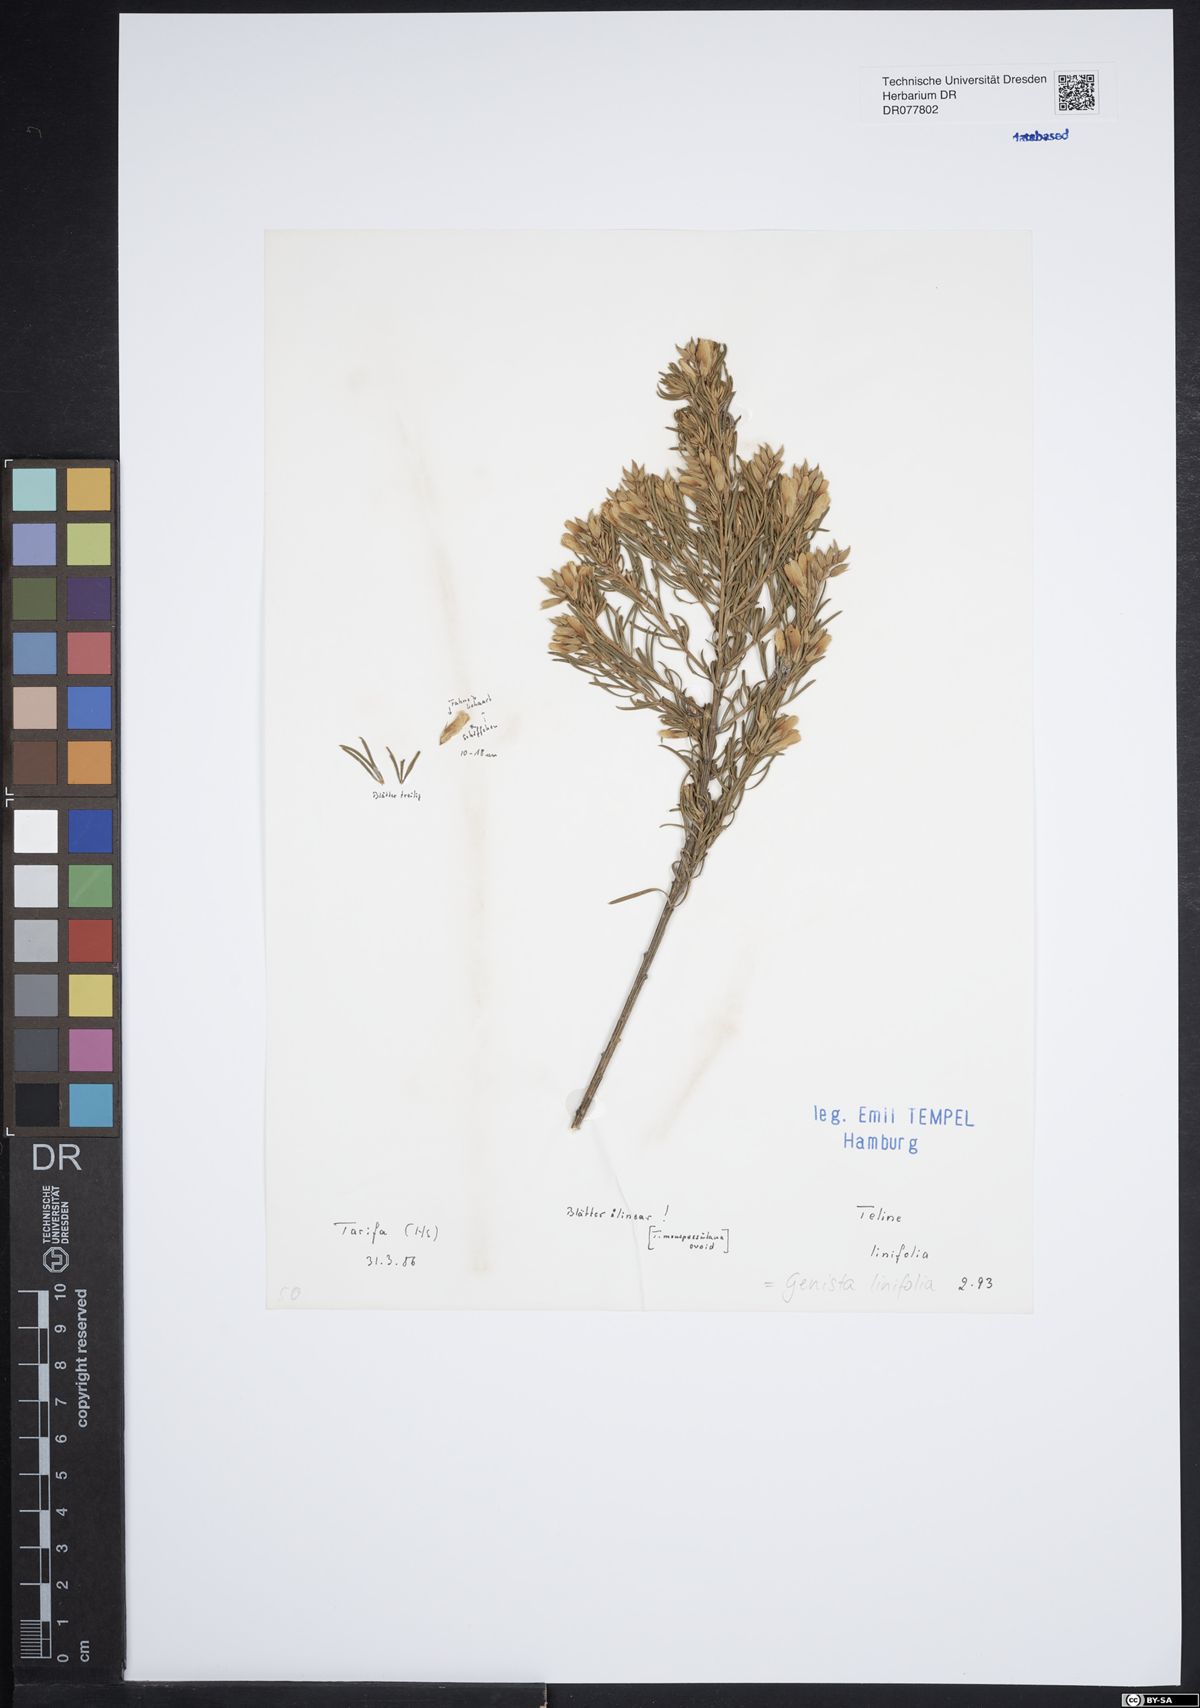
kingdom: Plantae
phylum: Tracheophyta
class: Magnoliopsida
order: Fabales
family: Fabaceae
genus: Genista
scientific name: Genista linifolia
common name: Mediterranean broom
